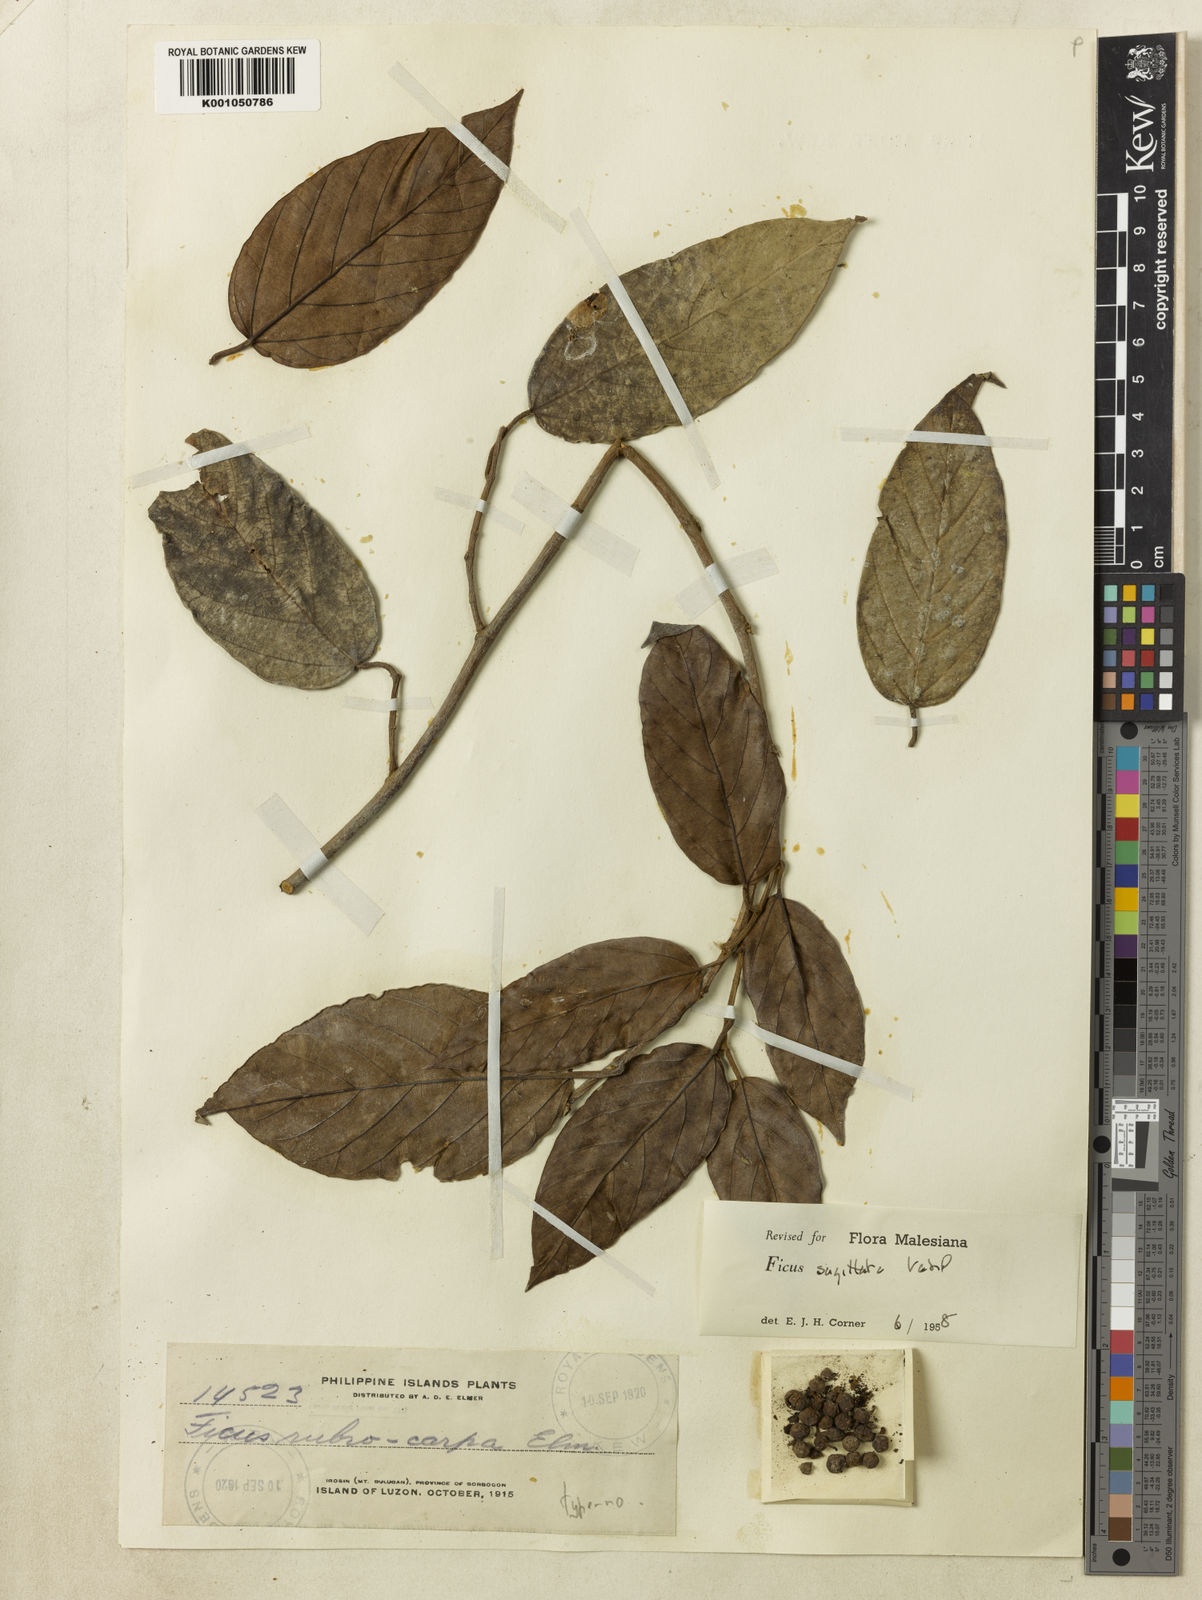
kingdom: Plantae
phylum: Tracheophyta
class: Magnoliopsida
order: Rosales
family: Moraceae
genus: Ficus
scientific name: Ficus sagittata
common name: Trailing fig
